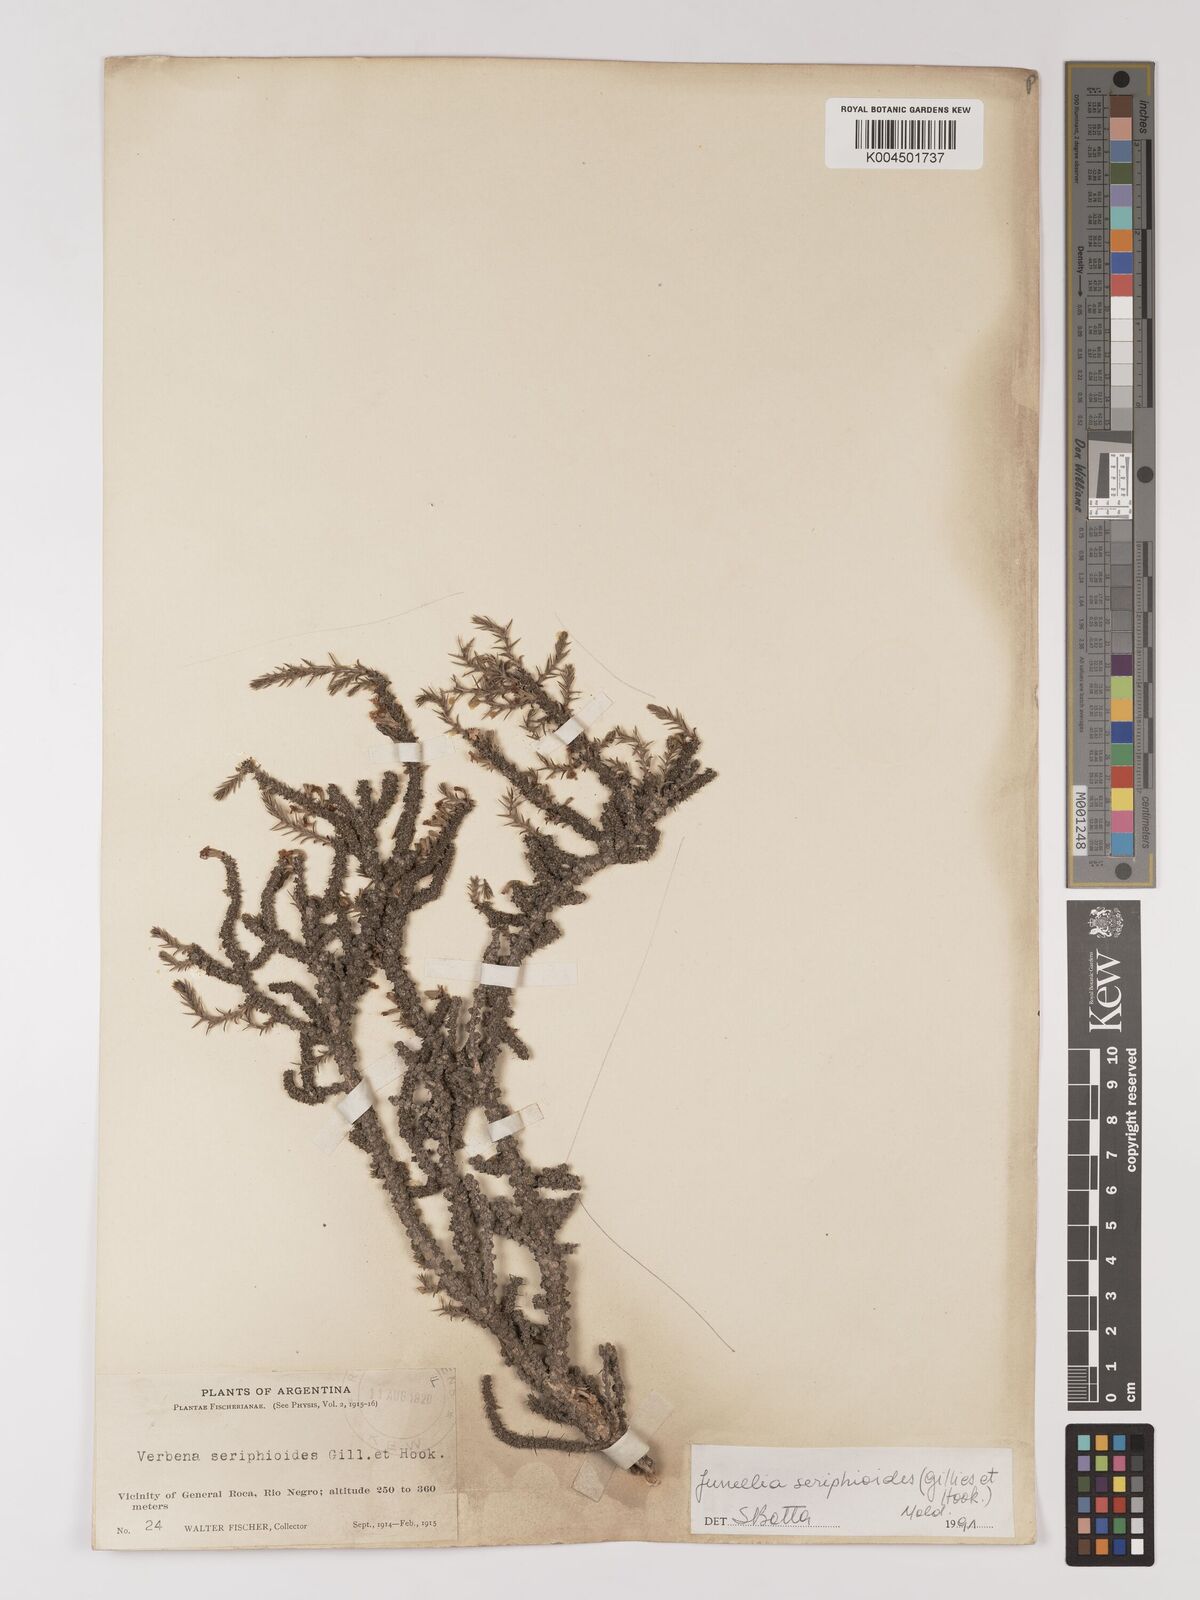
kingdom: Plantae
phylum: Tracheophyta
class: Magnoliopsida
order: Lamiales
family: Verbenaceae
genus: Junellia
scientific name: Junellia seriphioides
